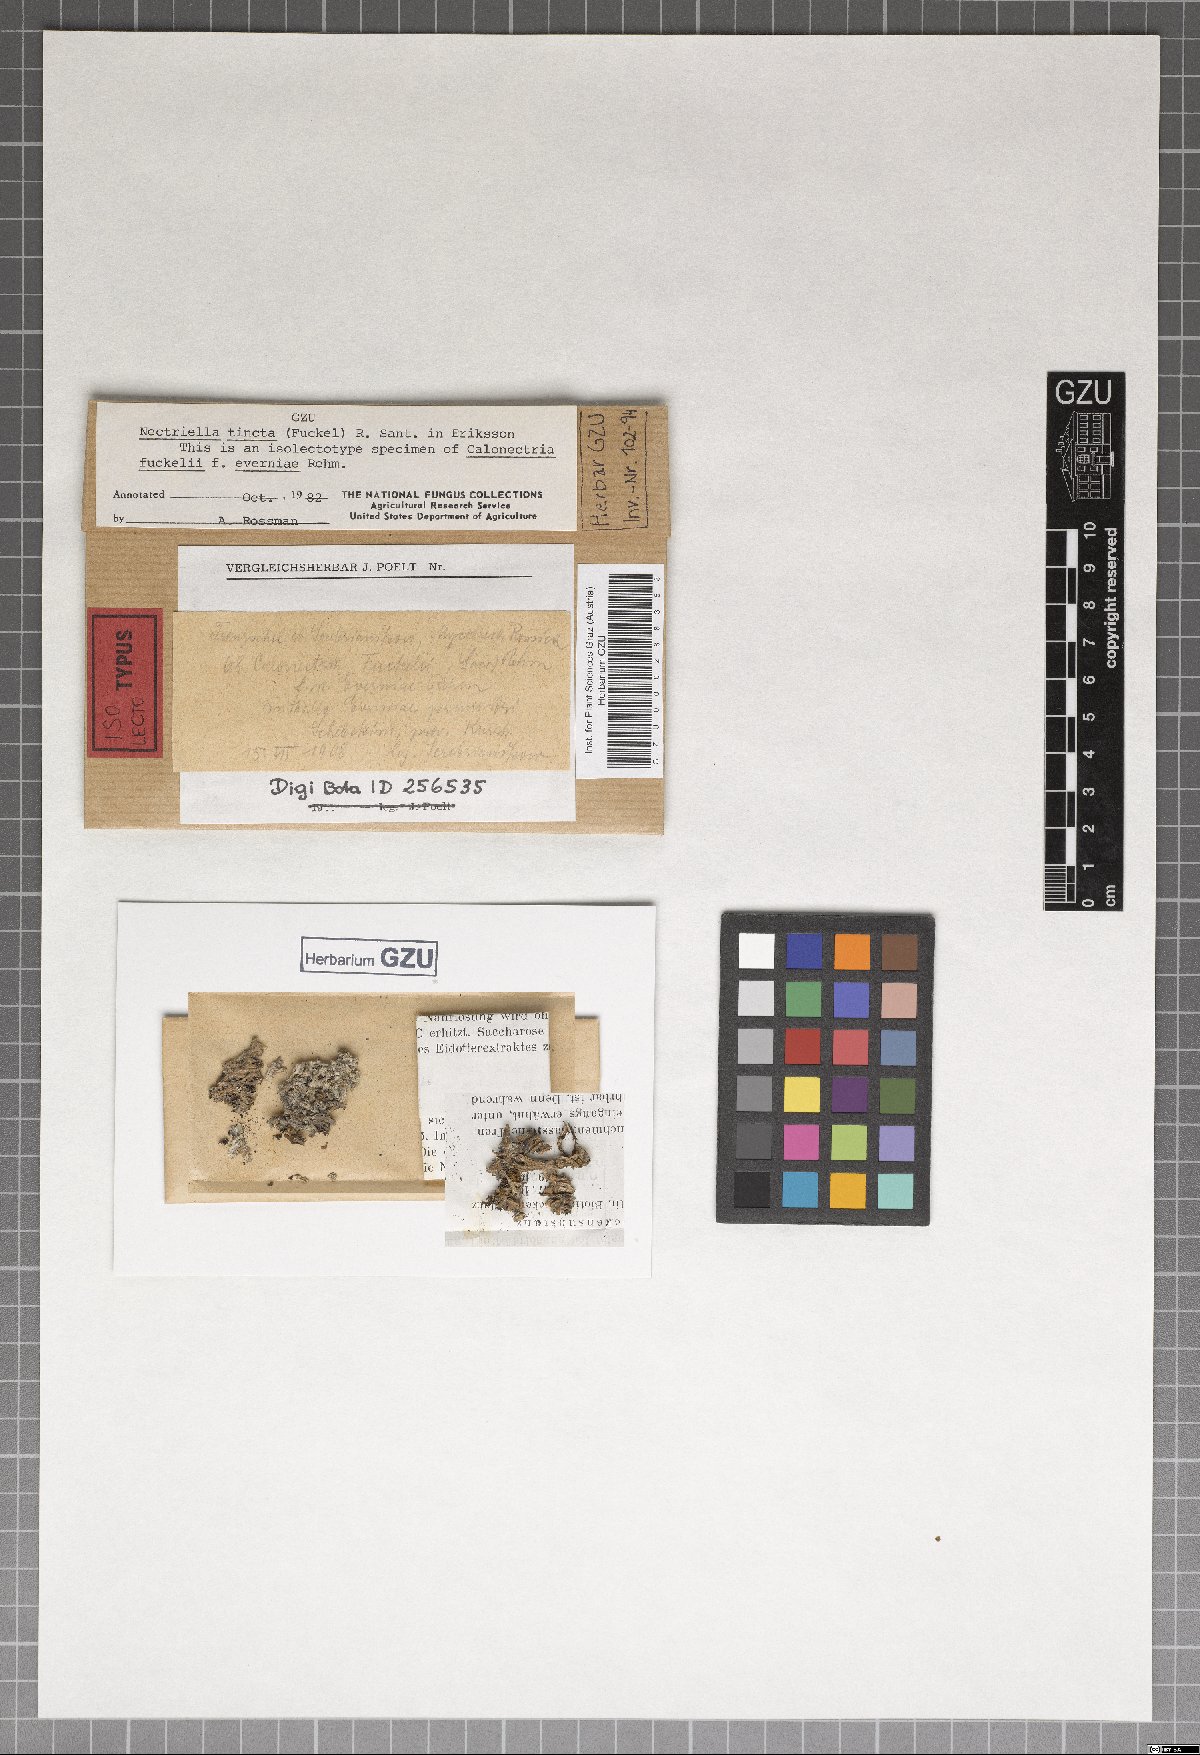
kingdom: Fungi
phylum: Ascomycota
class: Sordariomycetes
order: Hypocreales
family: Bionectriaceae
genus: Pronectria
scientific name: Pronectria tincta
